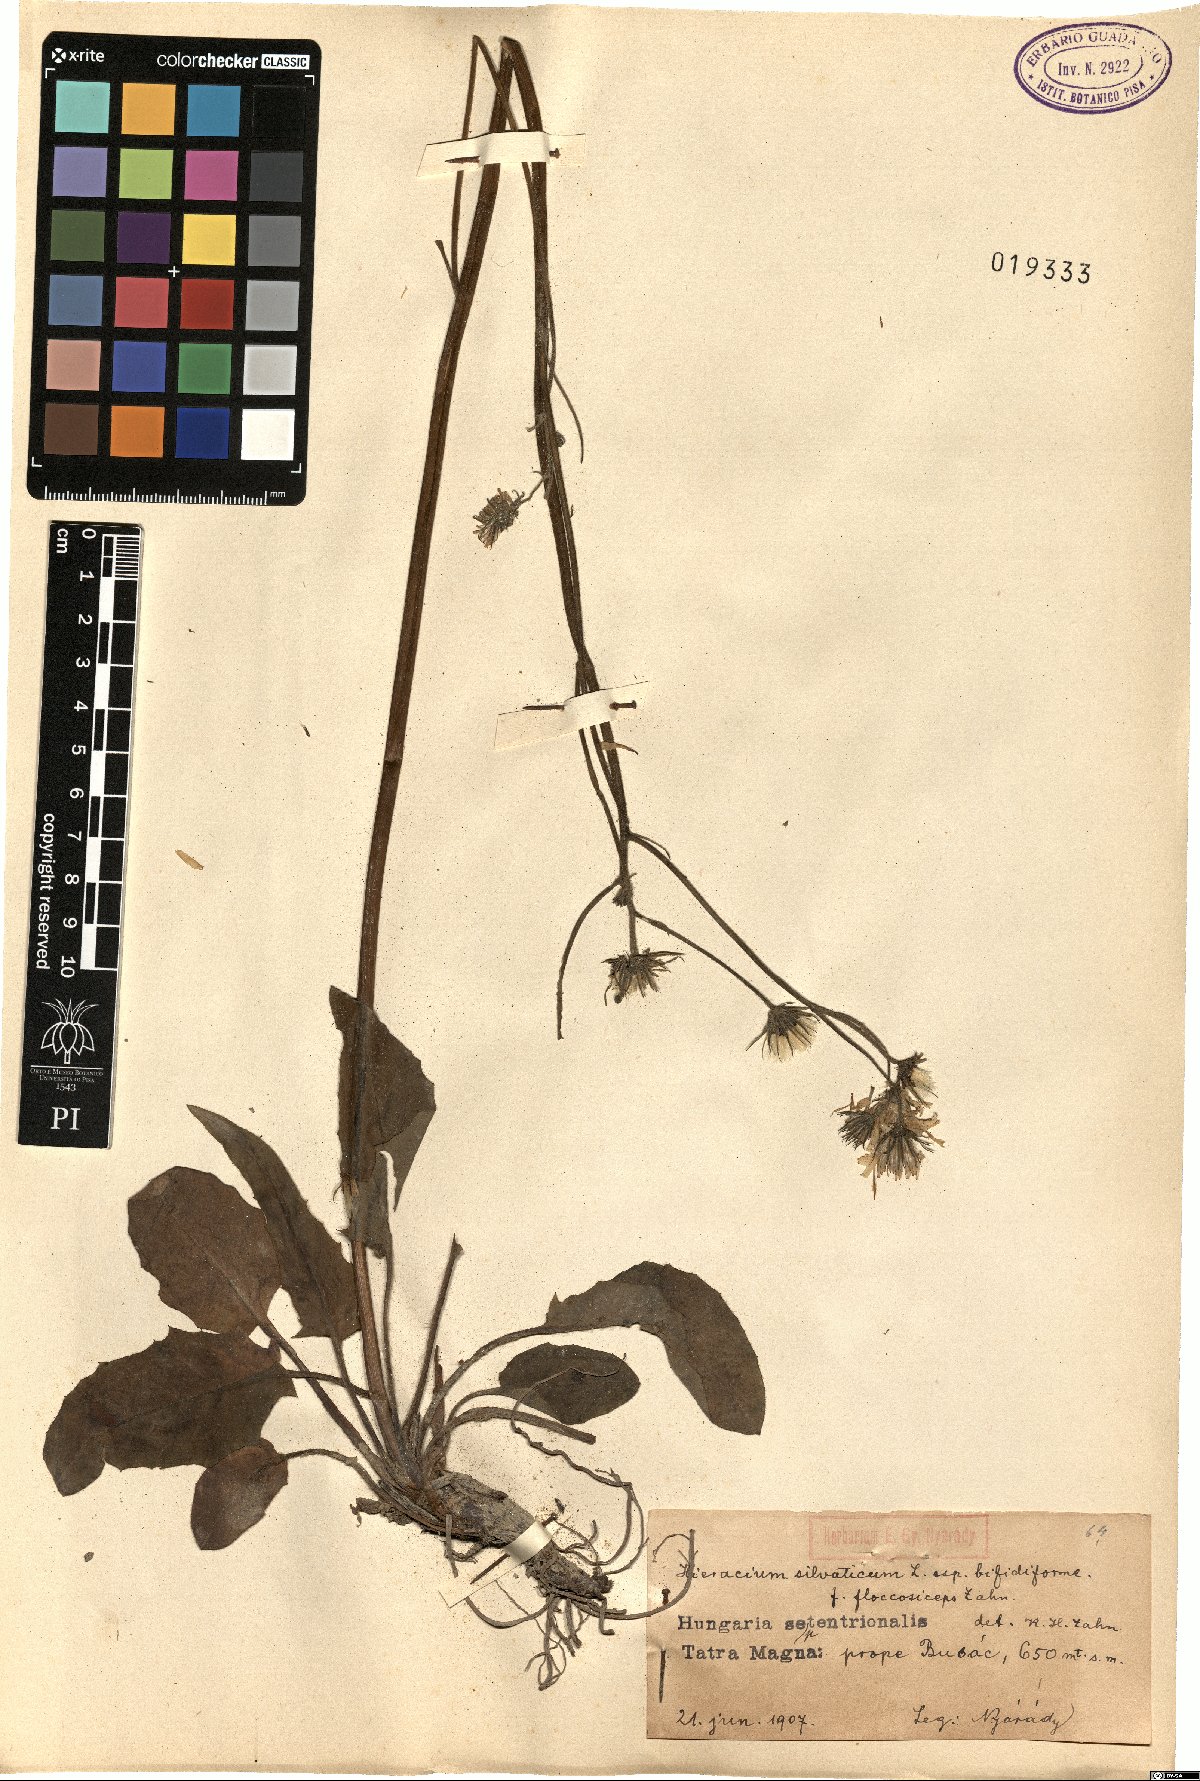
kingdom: Plantae
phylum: Tracheophyta
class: Magnoliopsida
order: Asterales
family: Asteraceae
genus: Hieracium
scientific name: Hieracium murorum
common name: Wall hawkweed
